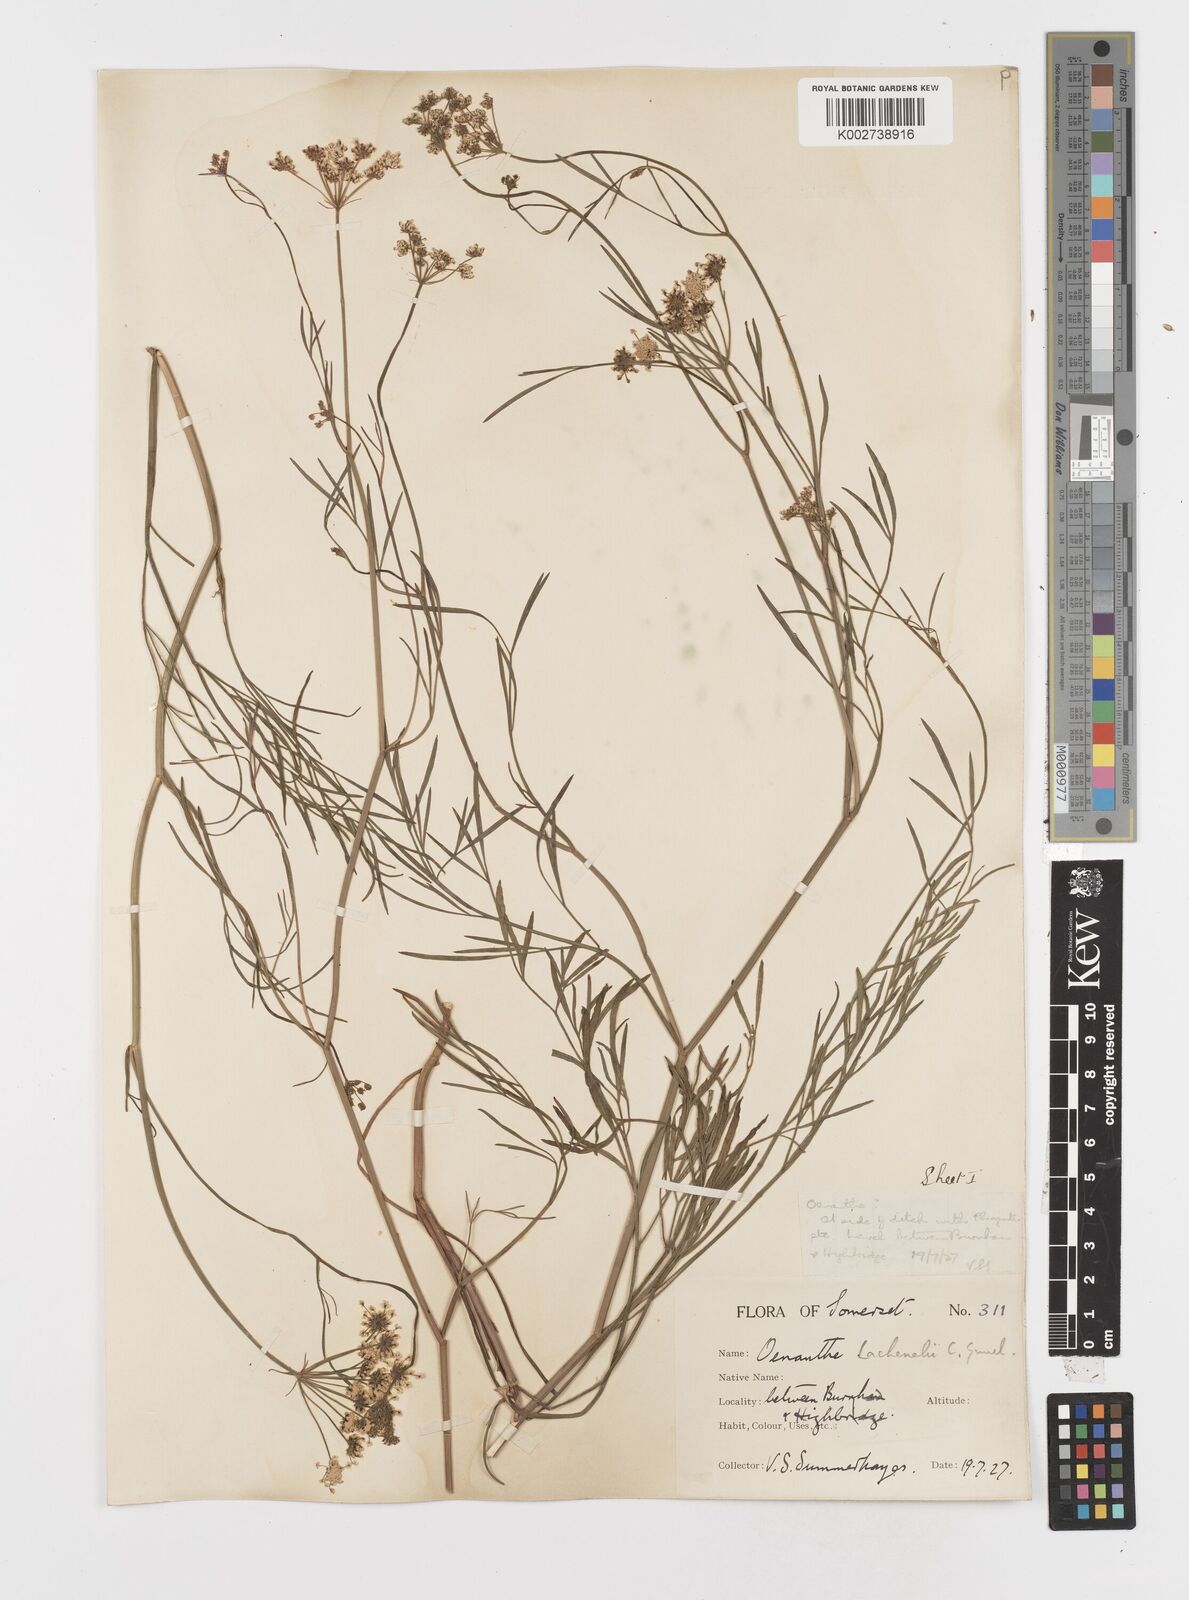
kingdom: Plantae
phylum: Tracheophyta
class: Magnoliopsida
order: Apiales
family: Apiaceae
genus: Oenanthe
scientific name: Oenanthe lachenalii
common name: Parsley water-dropwort
